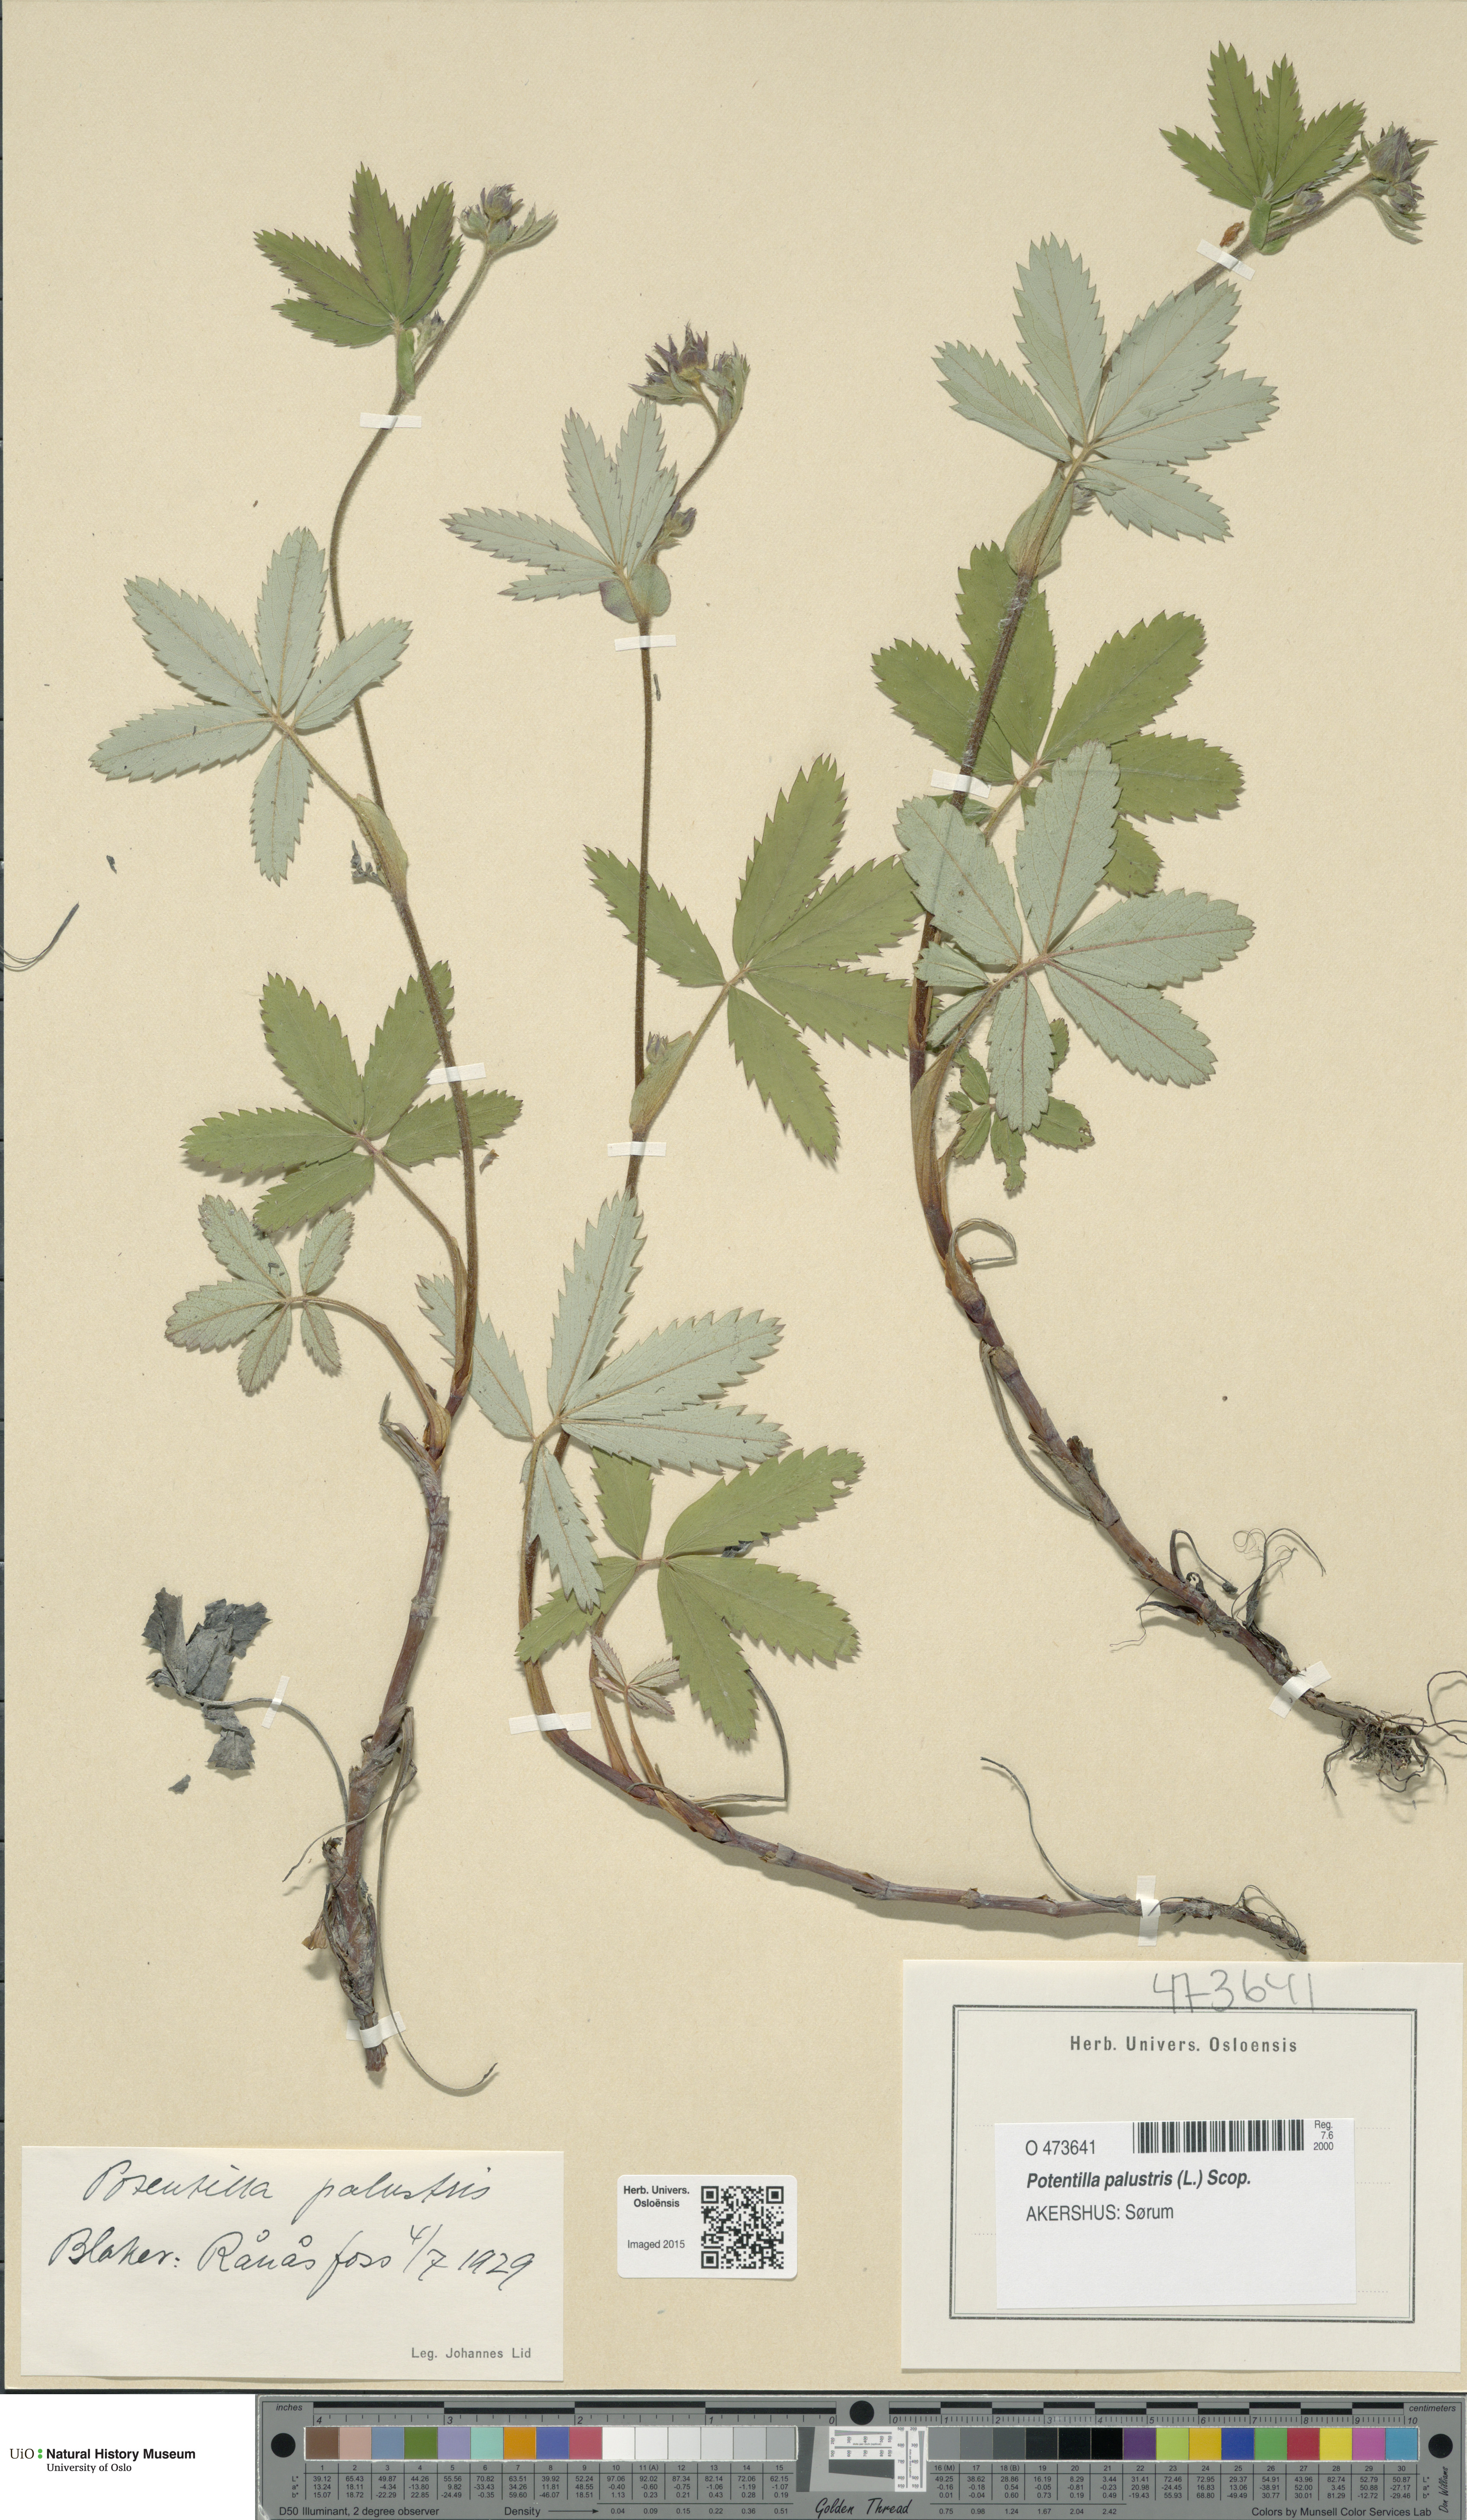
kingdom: Plantae
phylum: Tracheophyta
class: Magnoliopsida
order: Rosales
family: Rosaceae
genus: Comarum
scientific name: Comarum palustre
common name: Marsh cinquefoil
